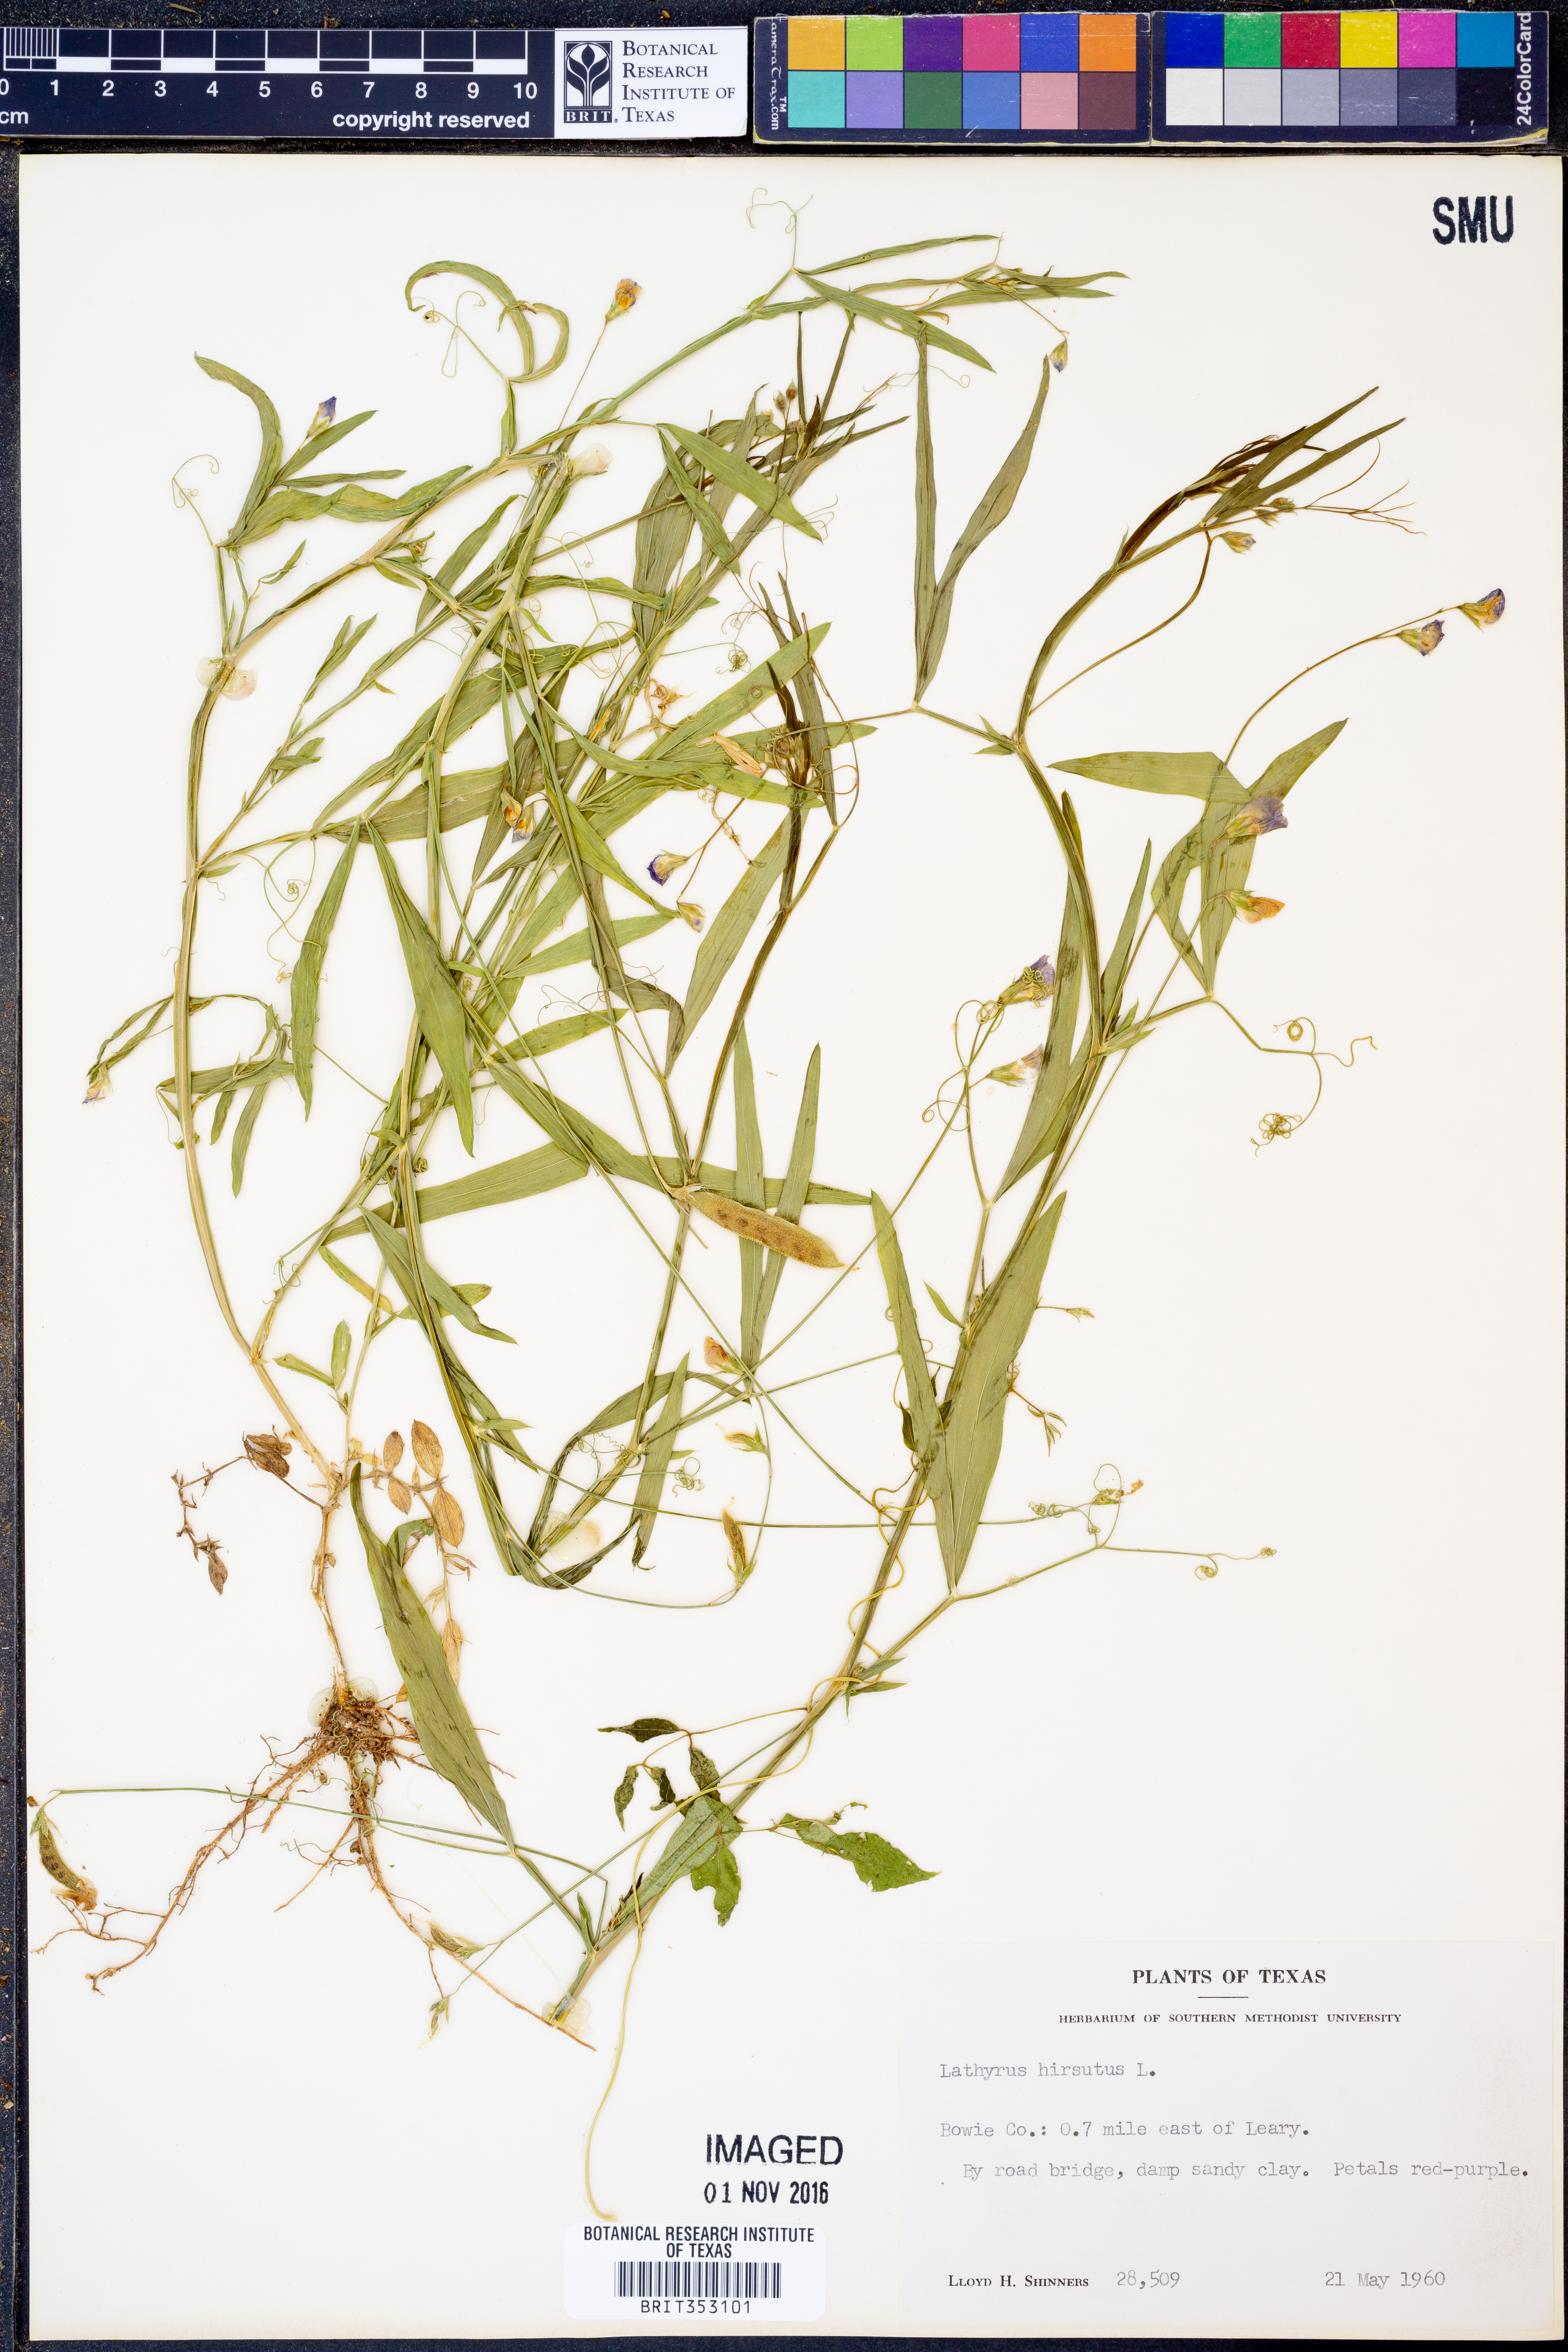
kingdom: Plantae
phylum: Tracheophyta
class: Magnoliopsida
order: Fabales
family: Fabaceae
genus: Lathyrus
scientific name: Lathyrus hirsutus
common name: Hairy vetchling
